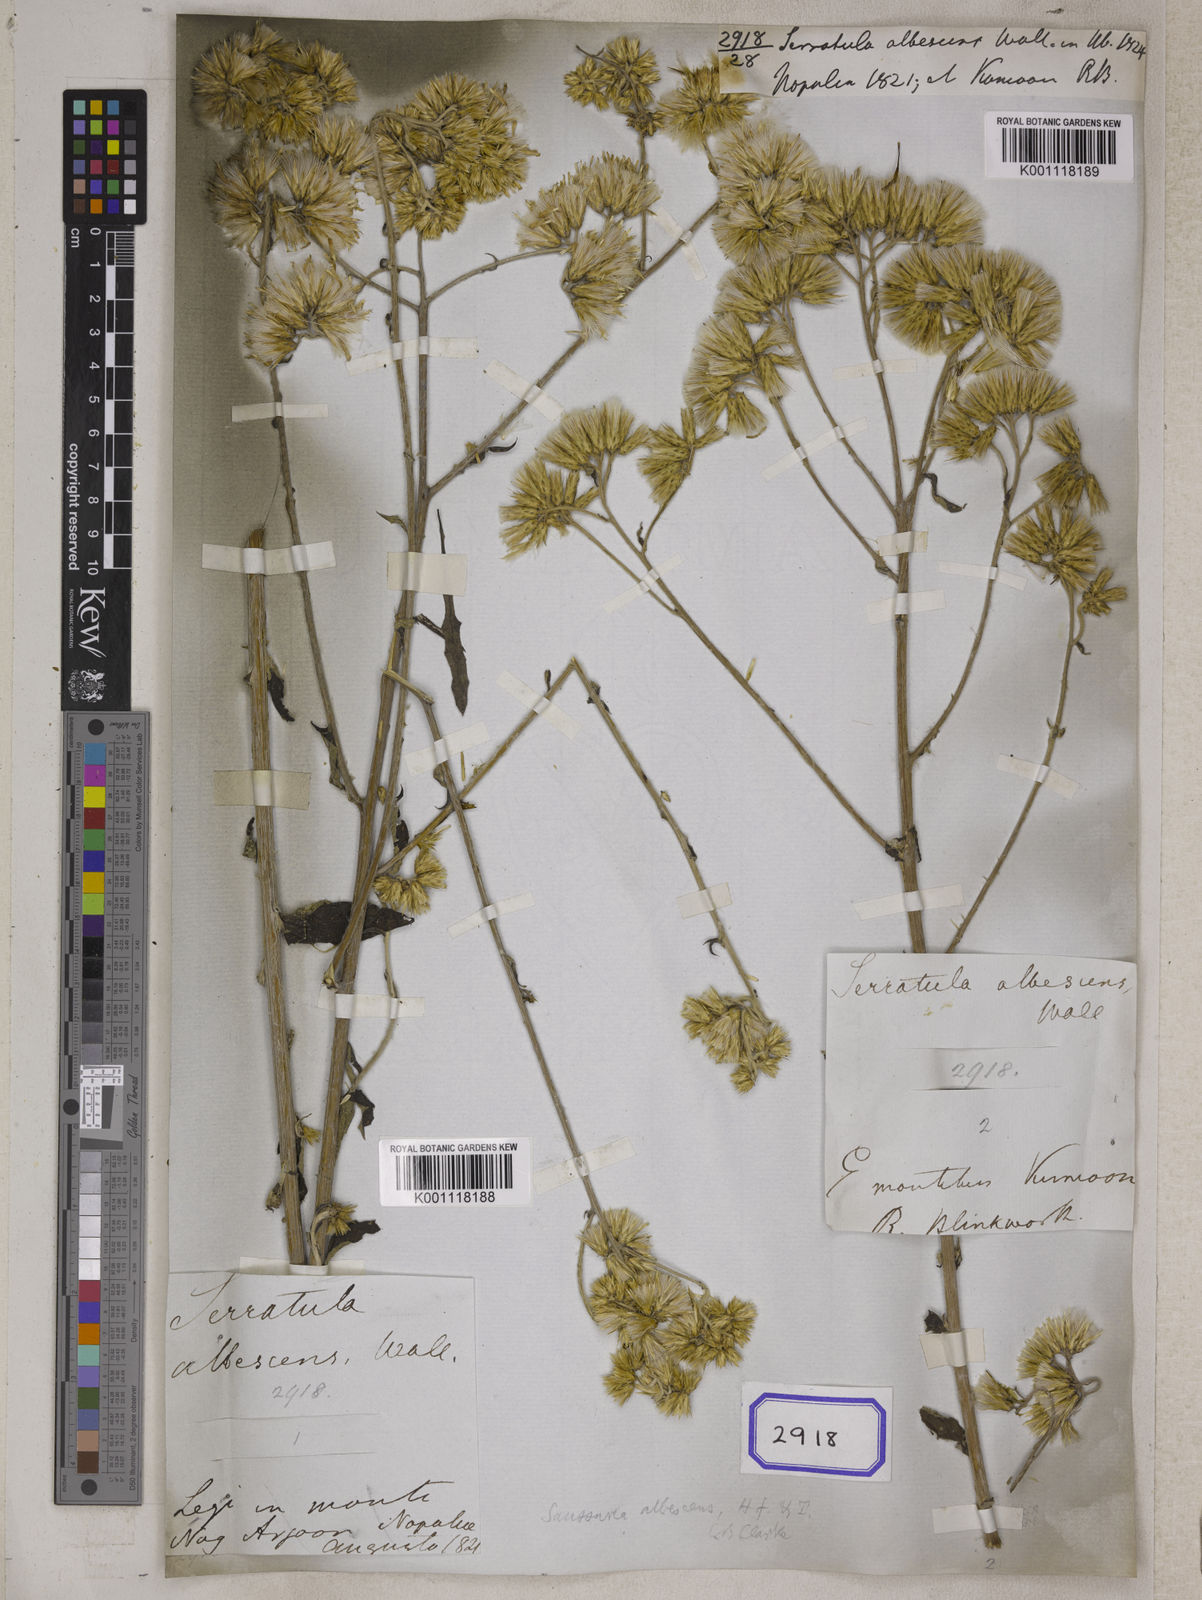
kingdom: Plantae
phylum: Tracheophyta
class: Magnoliopsida
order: Asterales
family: Asteraceae
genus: Jurinea
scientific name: Jurinea albescens
